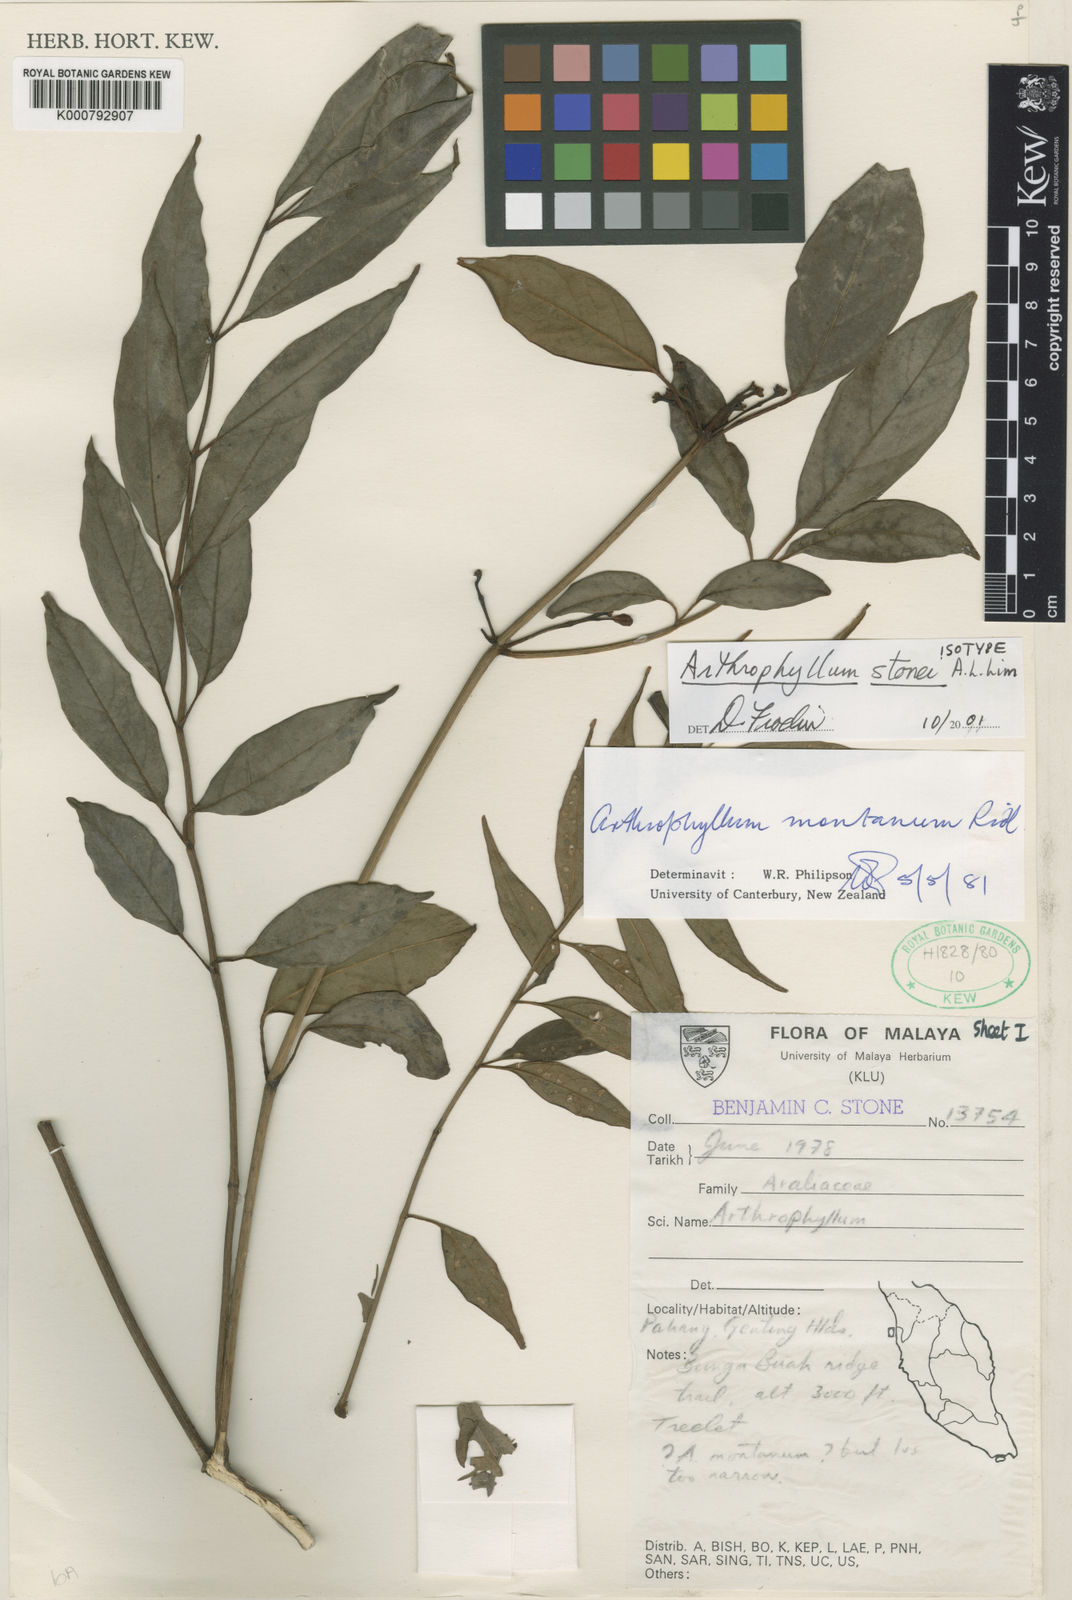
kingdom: Plantae
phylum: Tracheophyta
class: Magnoliopsida
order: Apiales
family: Araliaceae
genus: Polyscias
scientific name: Polyscias stonei
